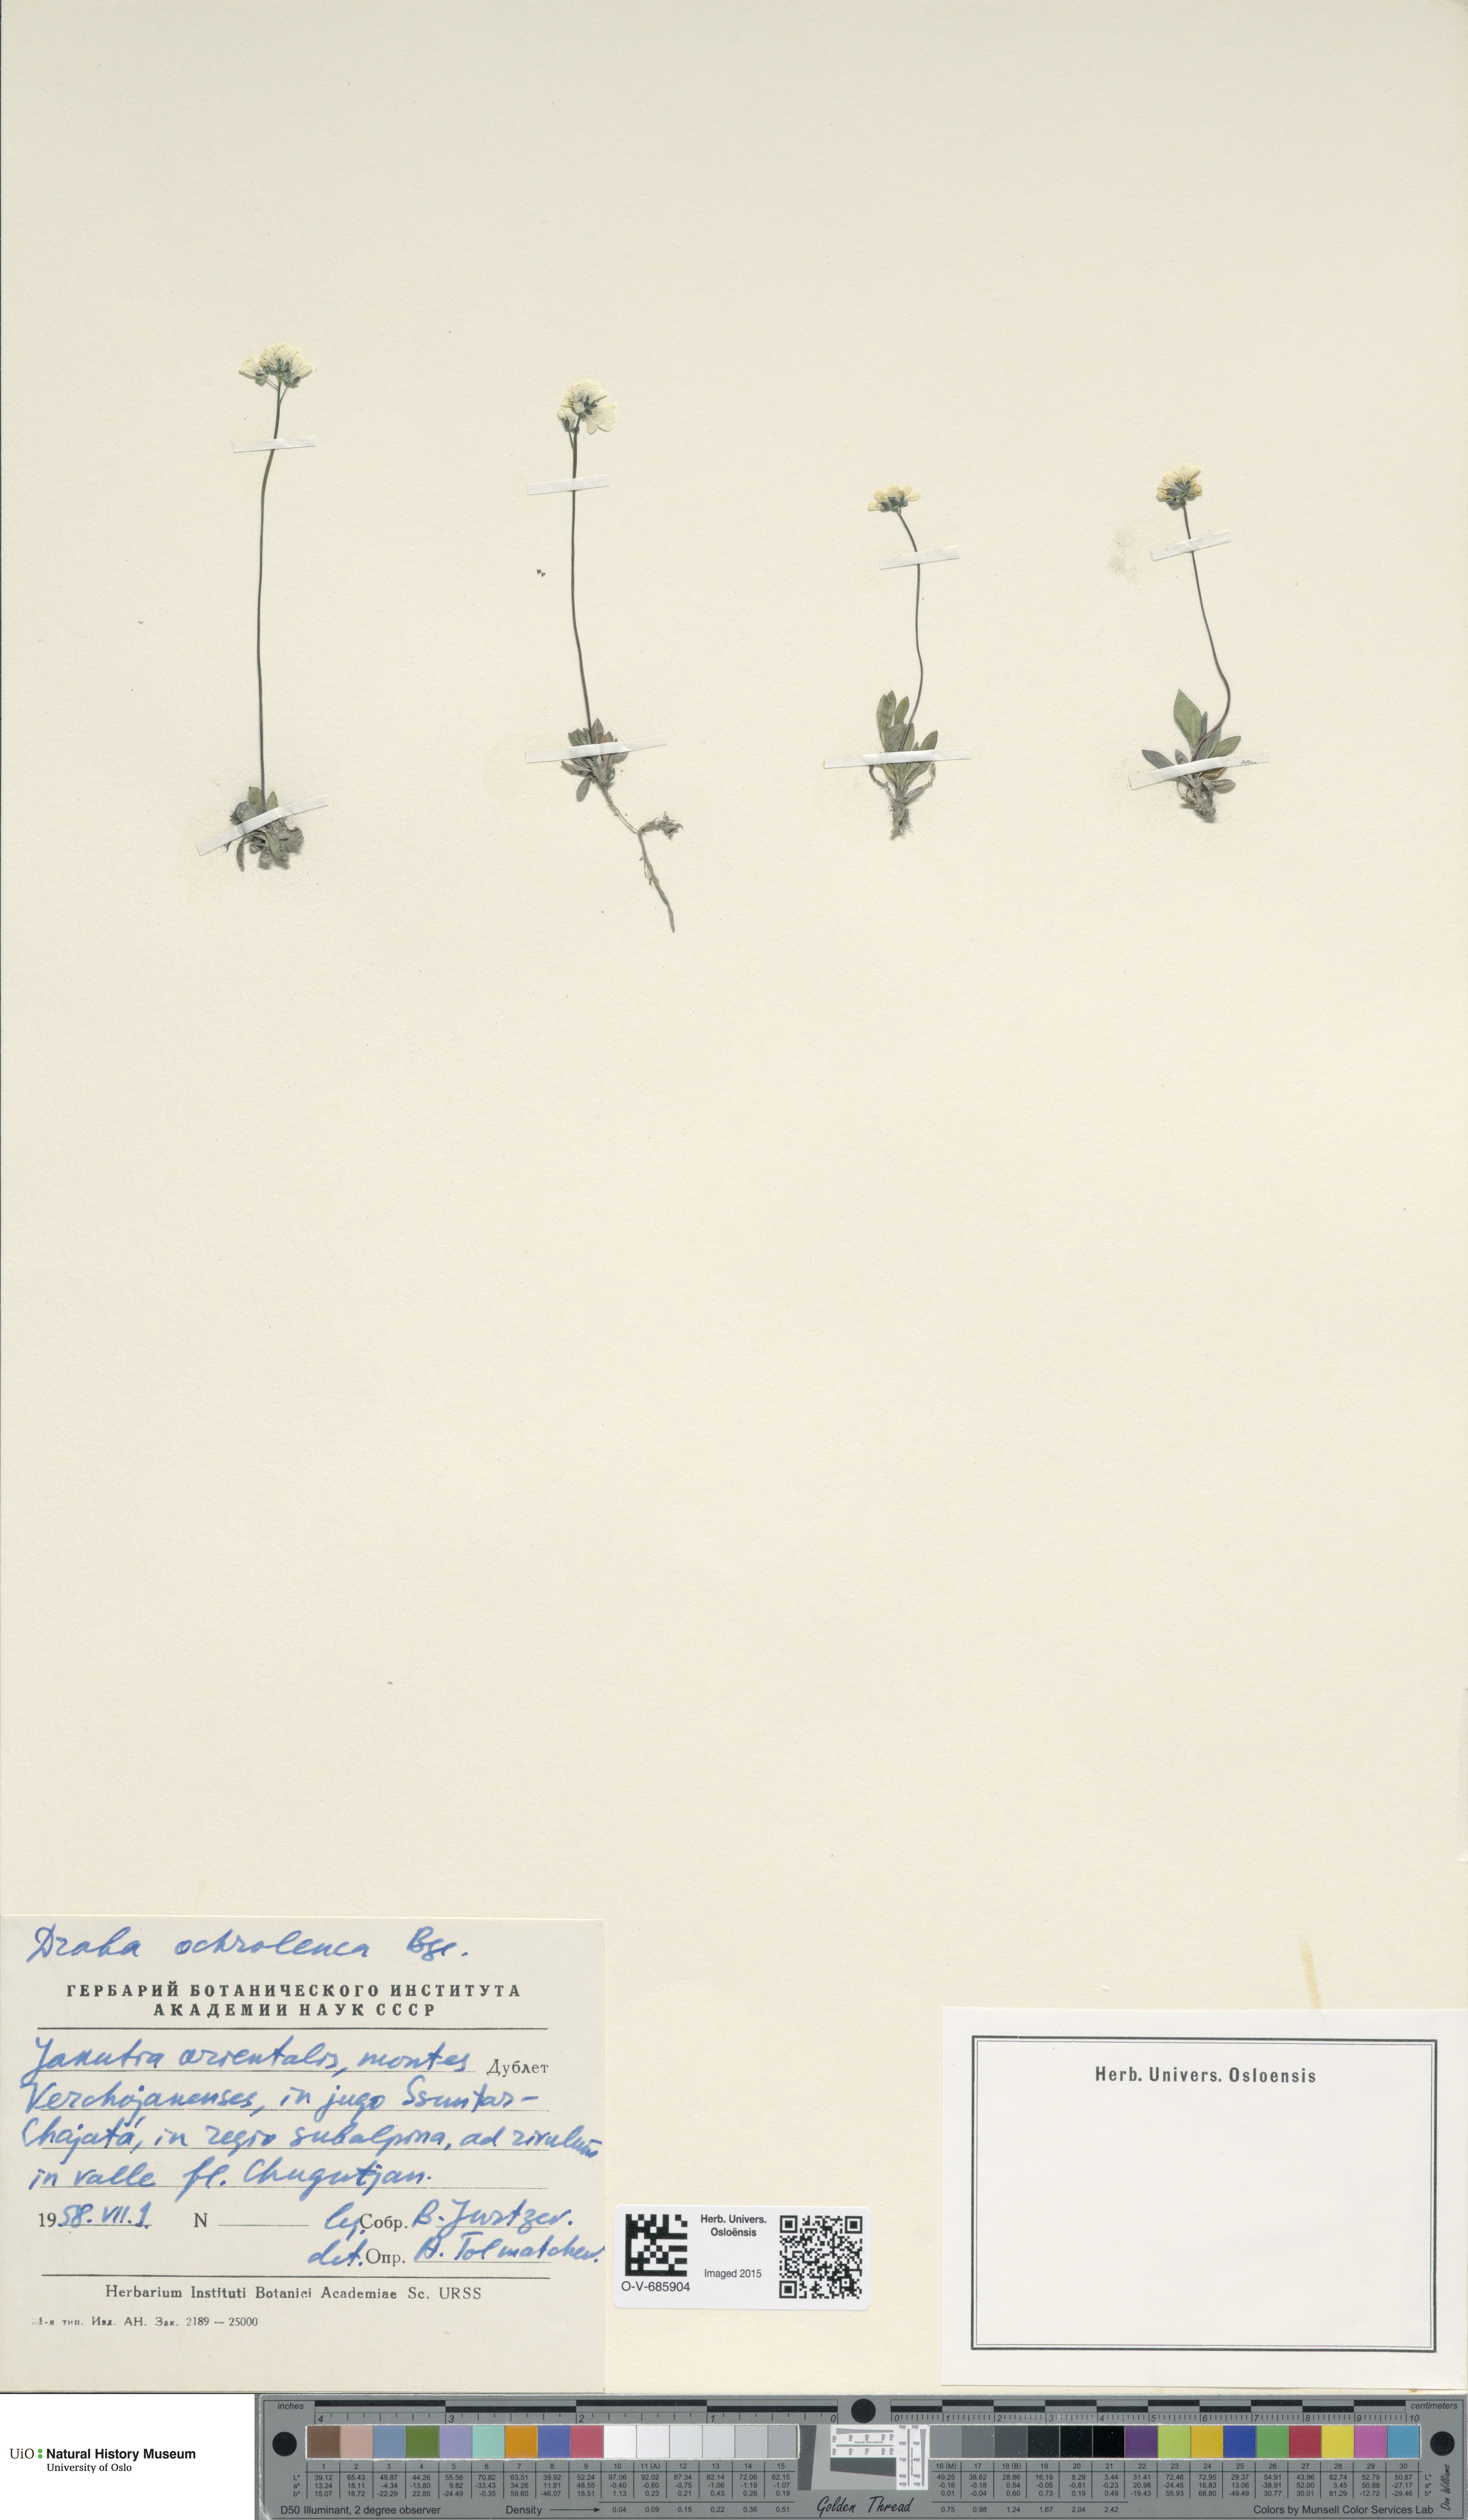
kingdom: Plantae
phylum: Tracheophyta
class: Magnoliopsida
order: Brassicales
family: Brassicaceae
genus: Draba
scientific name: Draba ochroleuca
